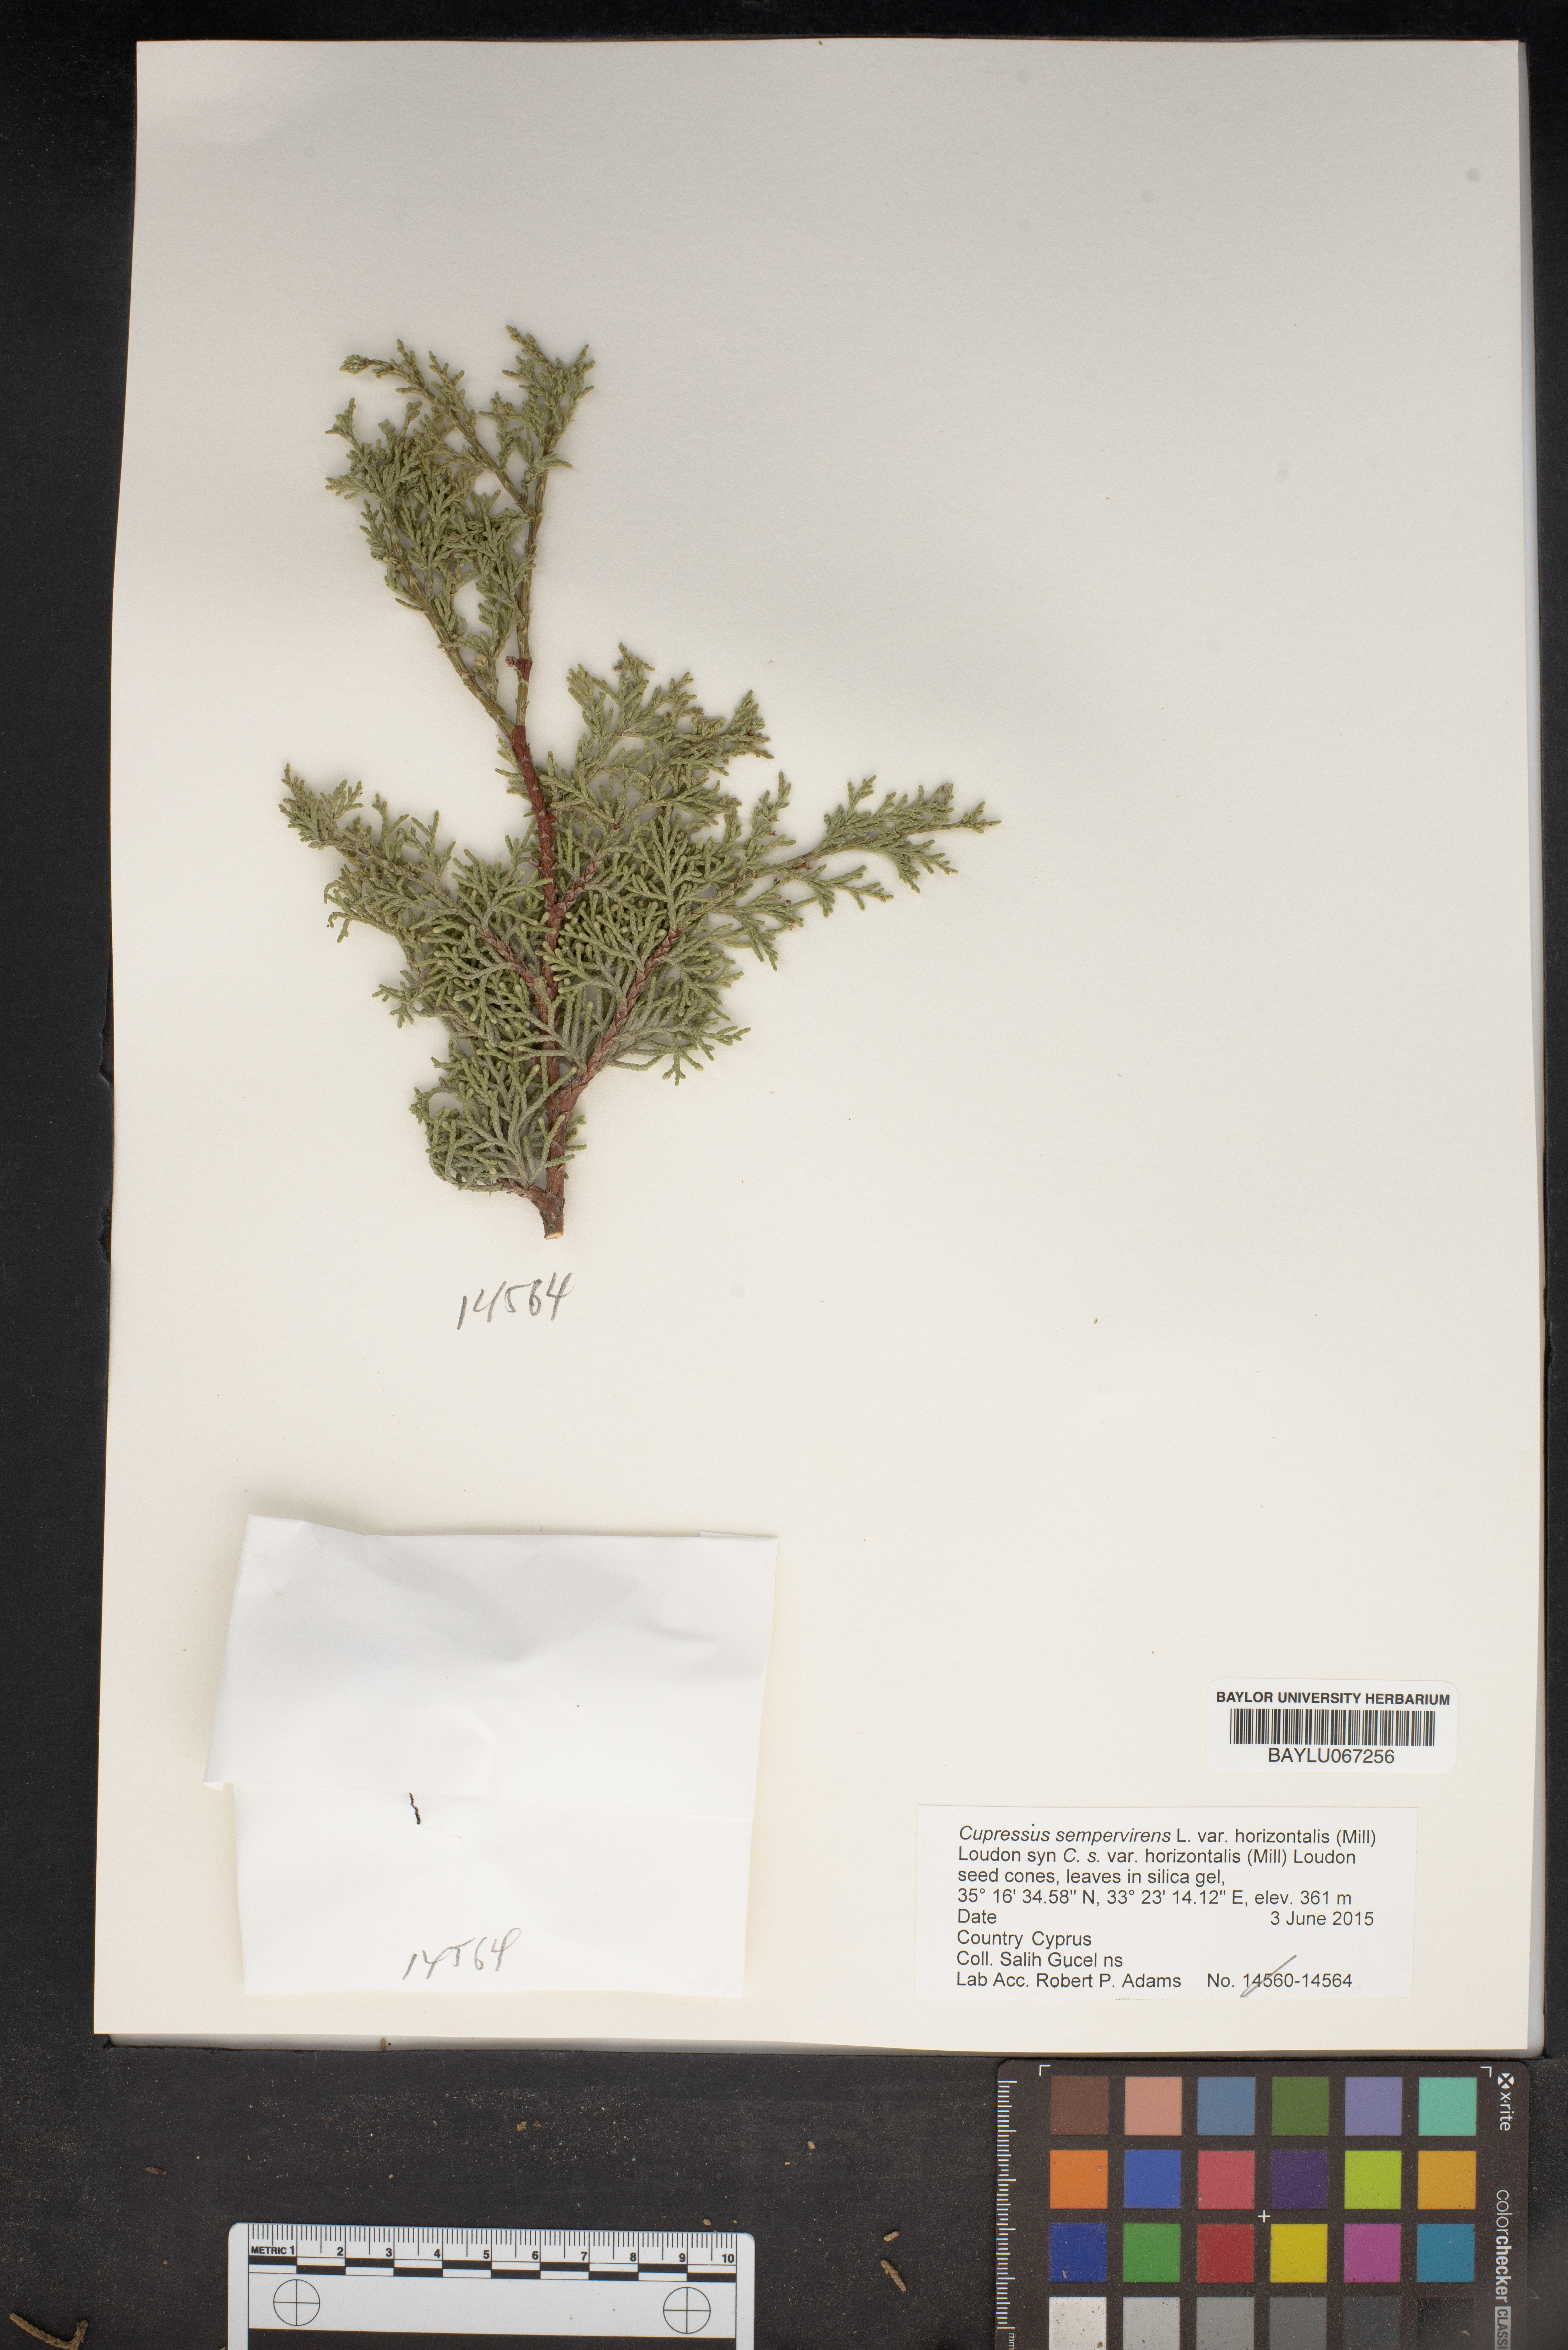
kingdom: Plantae
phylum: Tracheophyta
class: Pinopsida
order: Pinales
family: Cupressaceae
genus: Cupressus
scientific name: Cupressus sempervirens
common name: Italian cypress
